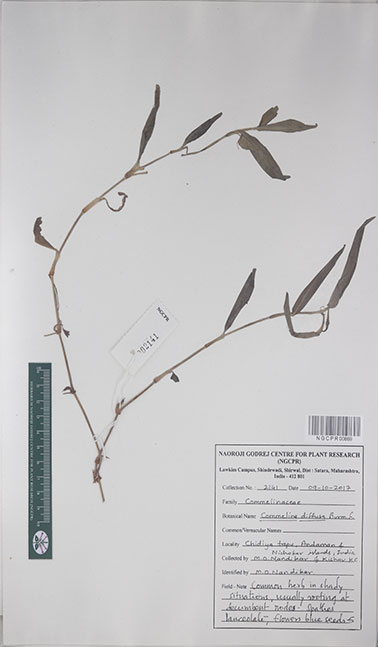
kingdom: Plantae
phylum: Tracheophyta
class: Liliopsida
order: Commelinales
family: Commelinaceae
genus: Commelina
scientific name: Commelina diffusa
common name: Climbing dayflower
